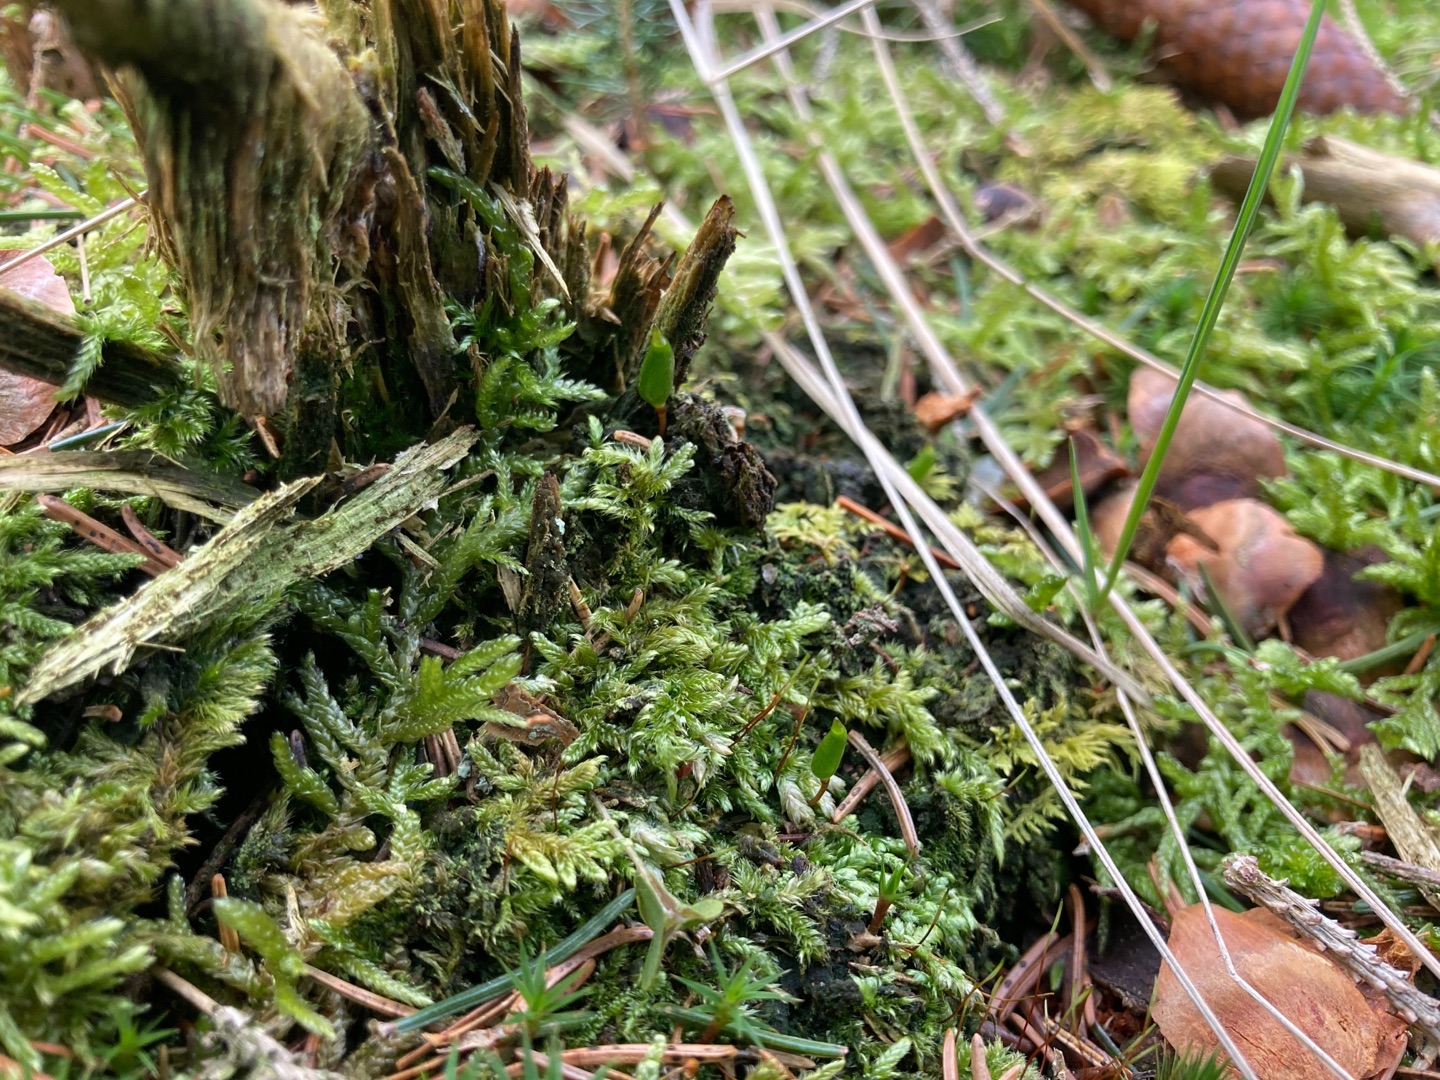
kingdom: Plantae
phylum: Bryophyta
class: Bryopsida
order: Buxbaumiales
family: Buxbaumiaceae
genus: Buxbaumia
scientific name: Buxbaumia viridis
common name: Grøn buxbaumia
